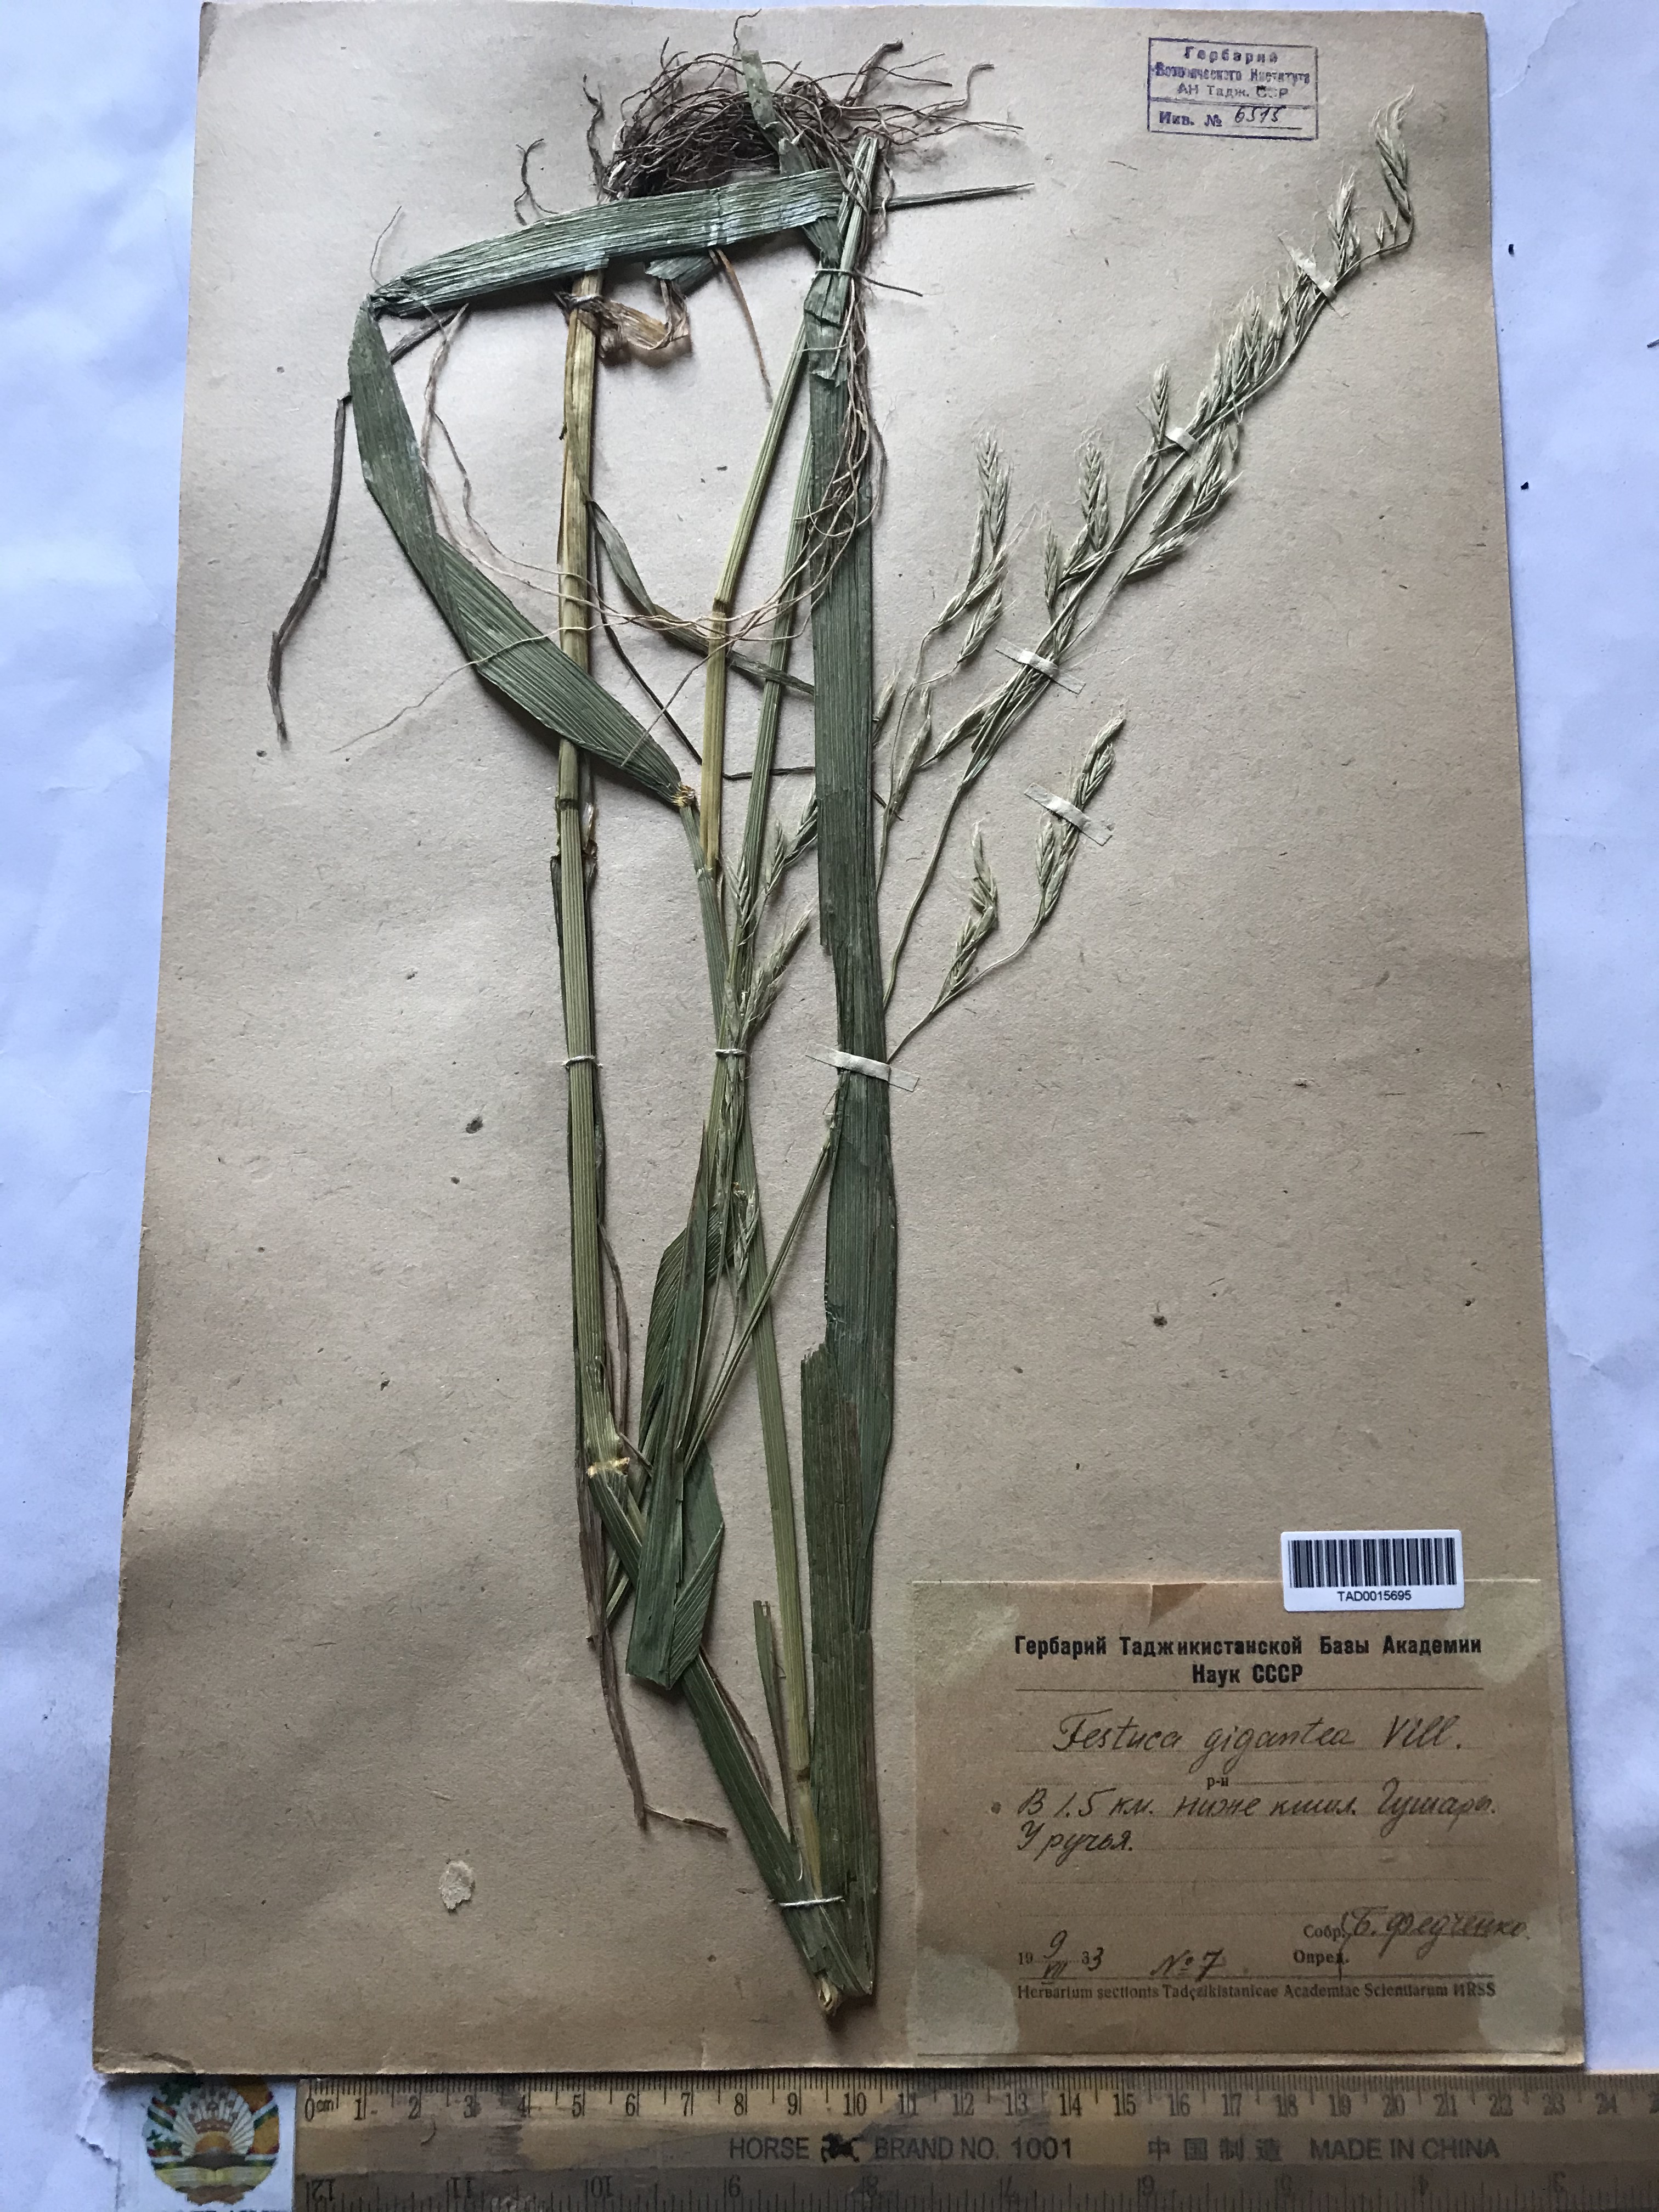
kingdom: Plantae
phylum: Tracheophyta
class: Liliopsida
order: Poales
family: Poaceae
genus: Lolium
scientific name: Lolium giganteum
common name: Giant fescue
